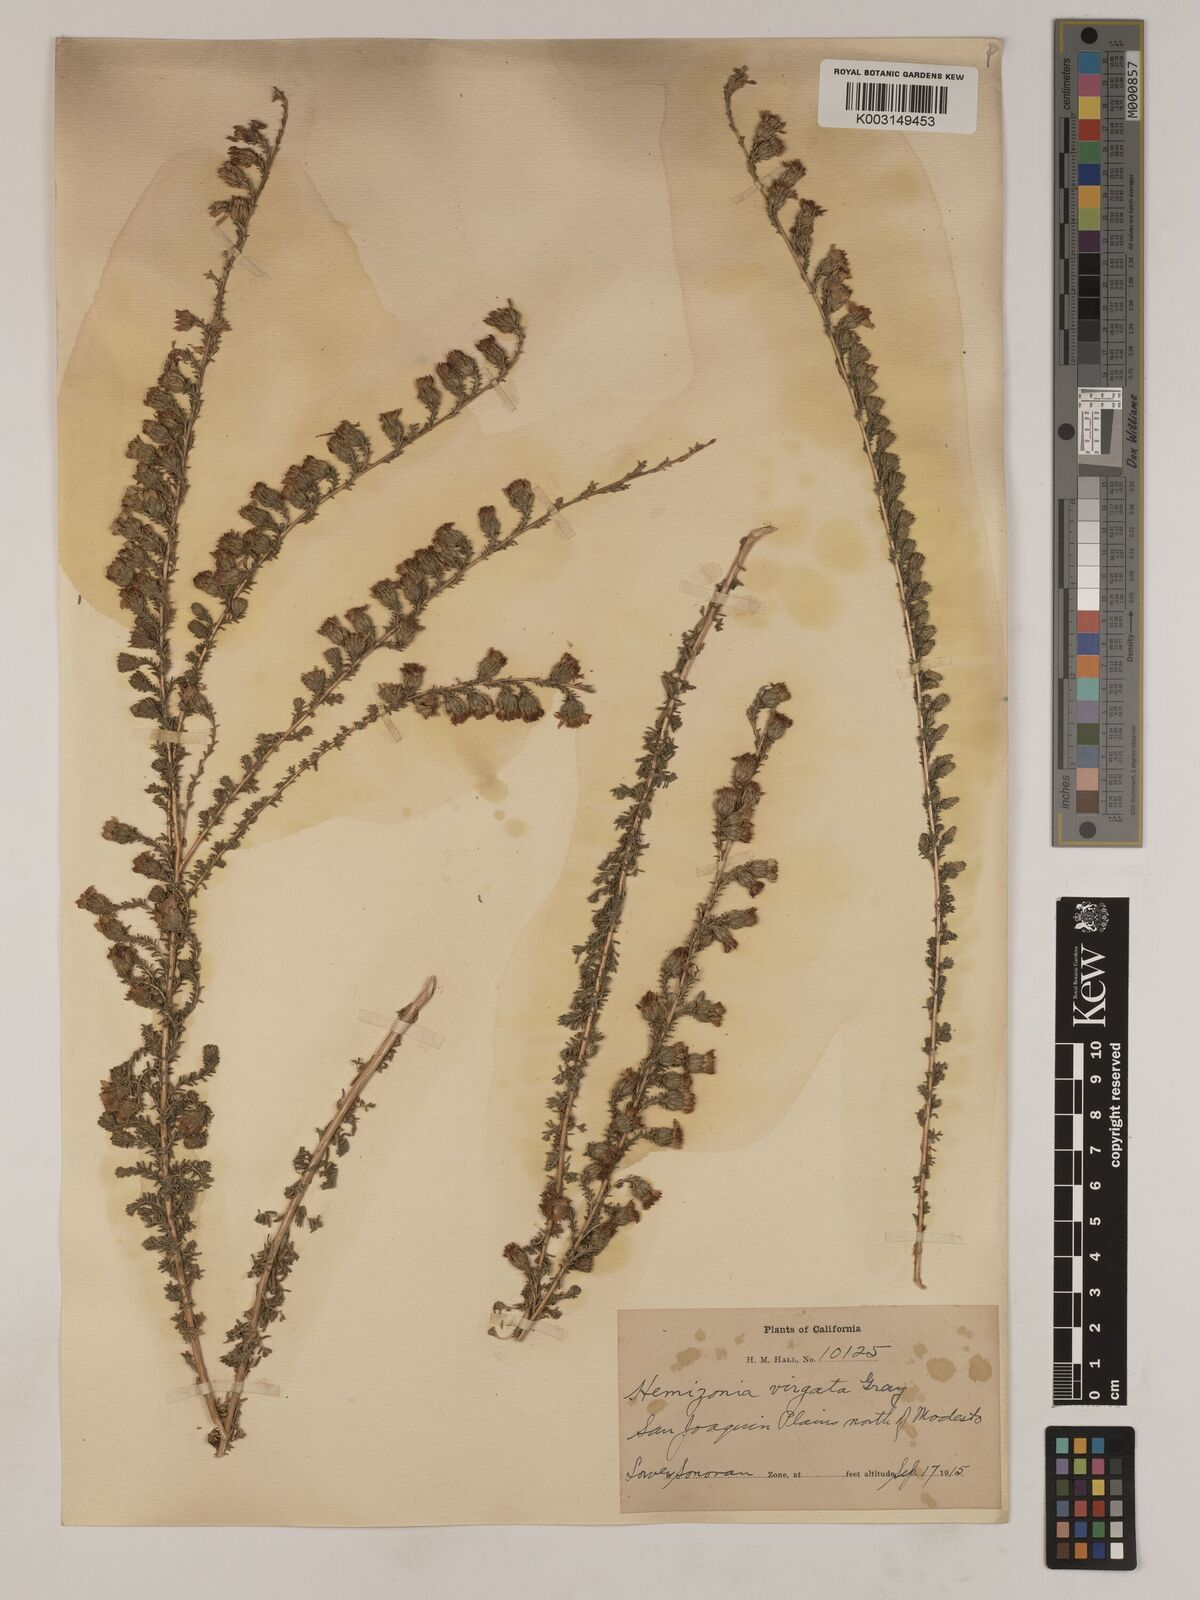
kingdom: Plantae
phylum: Tracheophyta
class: Magnoliopsida
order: Asterales
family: Asteraceae
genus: Holocarpha
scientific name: Holocarpha virgata
